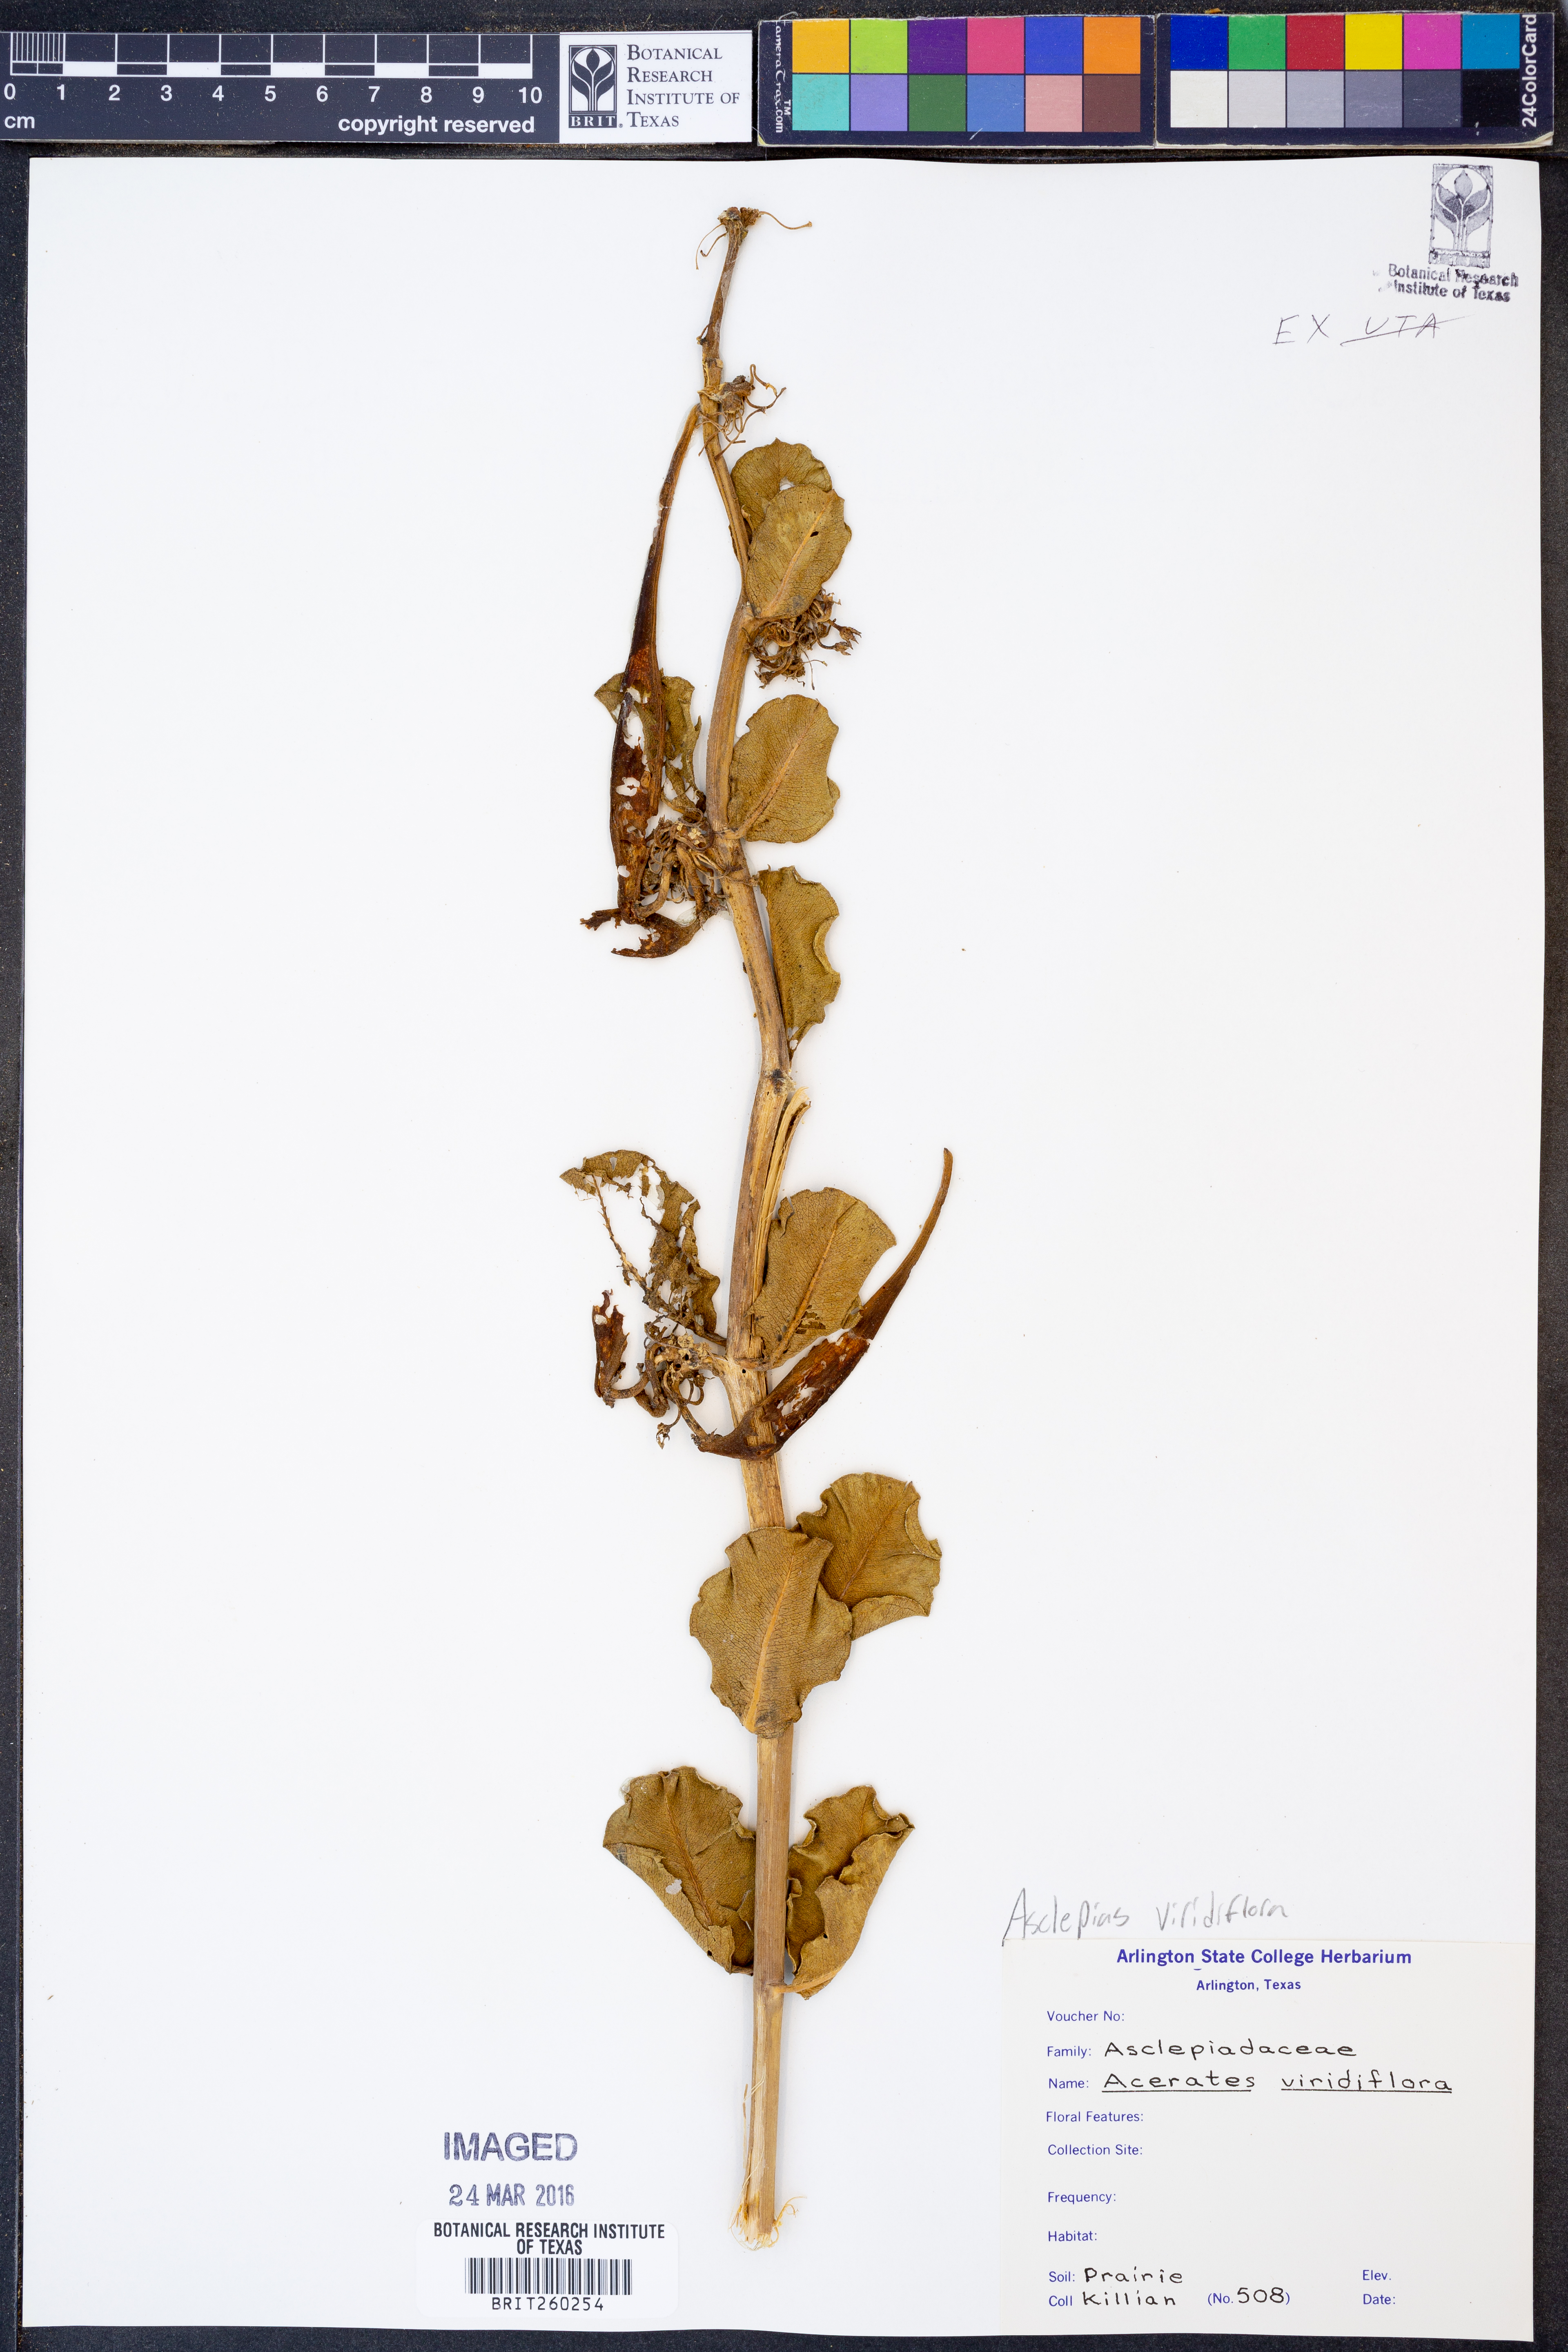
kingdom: Plantae
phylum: Tracheophyta
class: Magnoliopsida
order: Gentianales
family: Apocynaceae
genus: Asclepias
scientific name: Asclepias viridiflora
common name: Green comet milkweed
